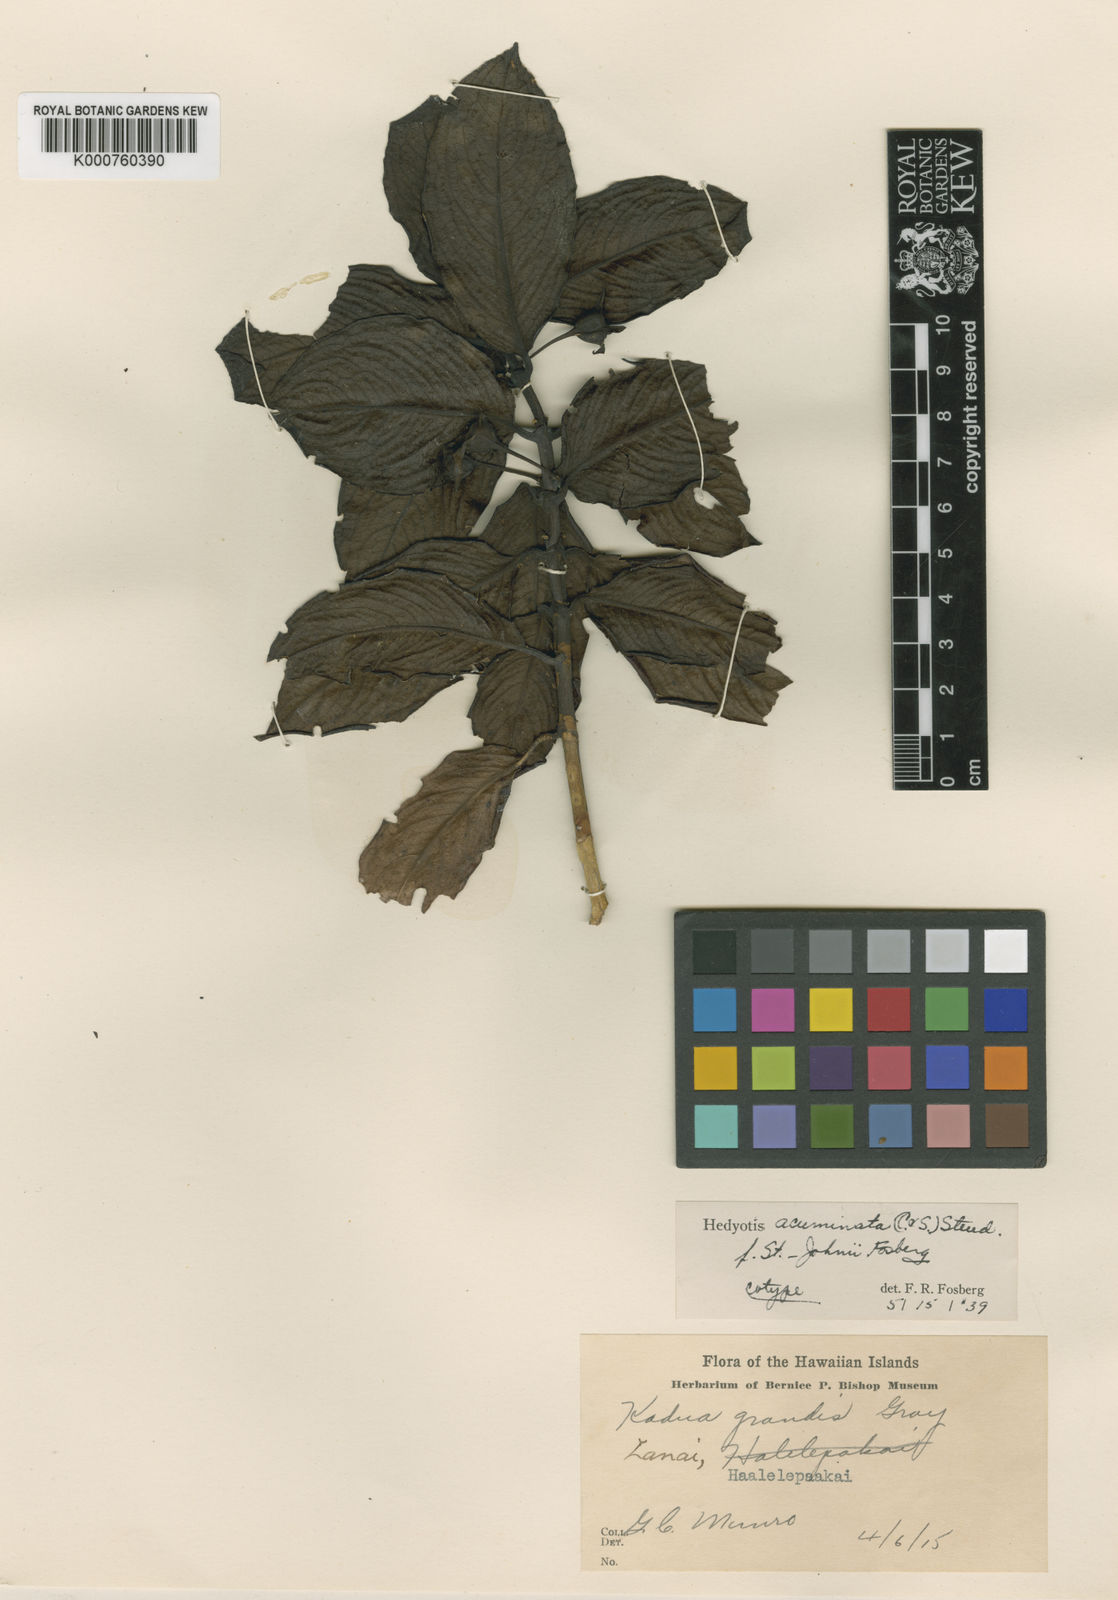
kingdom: Plantae
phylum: Tracheophyta
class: Magnoliopsida
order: Gentianales
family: Rubiaceae
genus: Kadua
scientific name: Kadua acuminata
